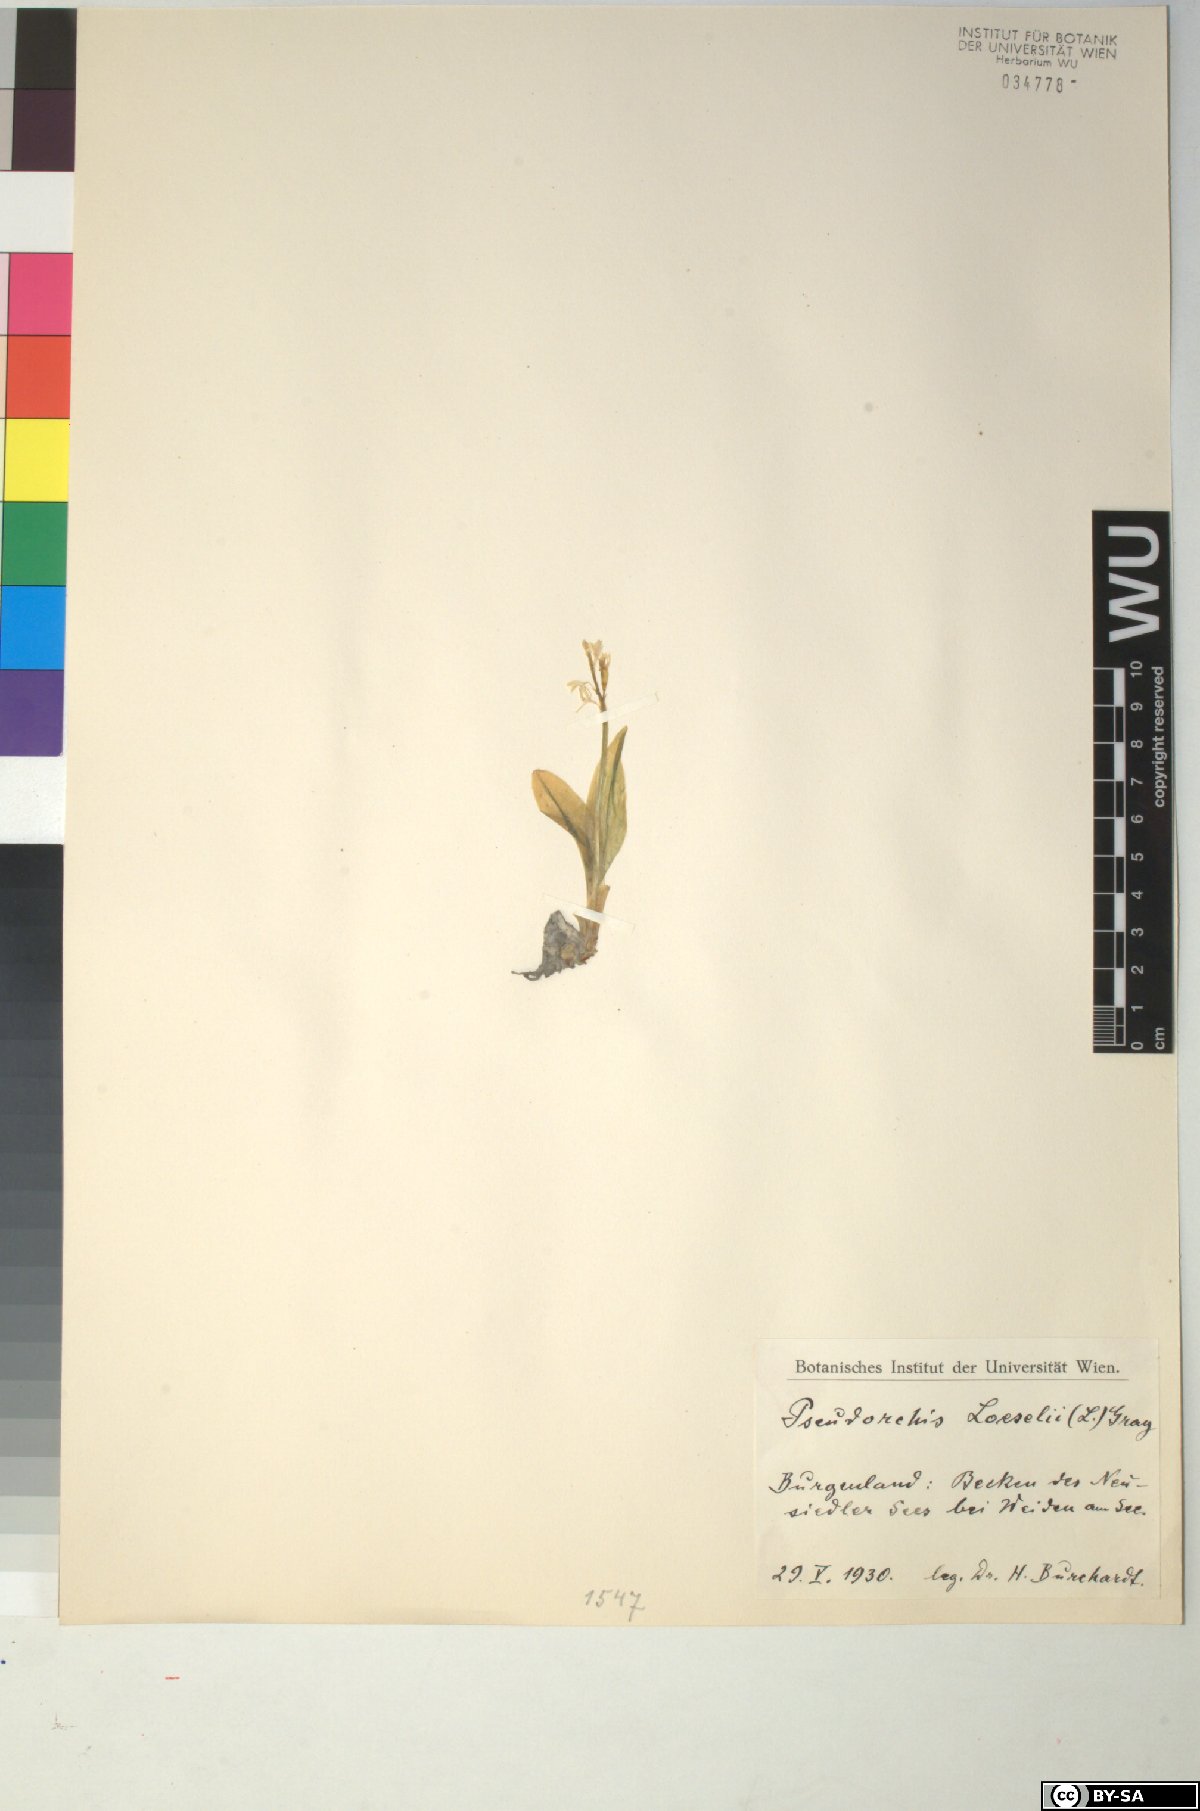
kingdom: Animalia
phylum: Arthropoda
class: Insecta
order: Coleoptera
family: Curculionidae
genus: Liparis
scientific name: Liparis loeselii
